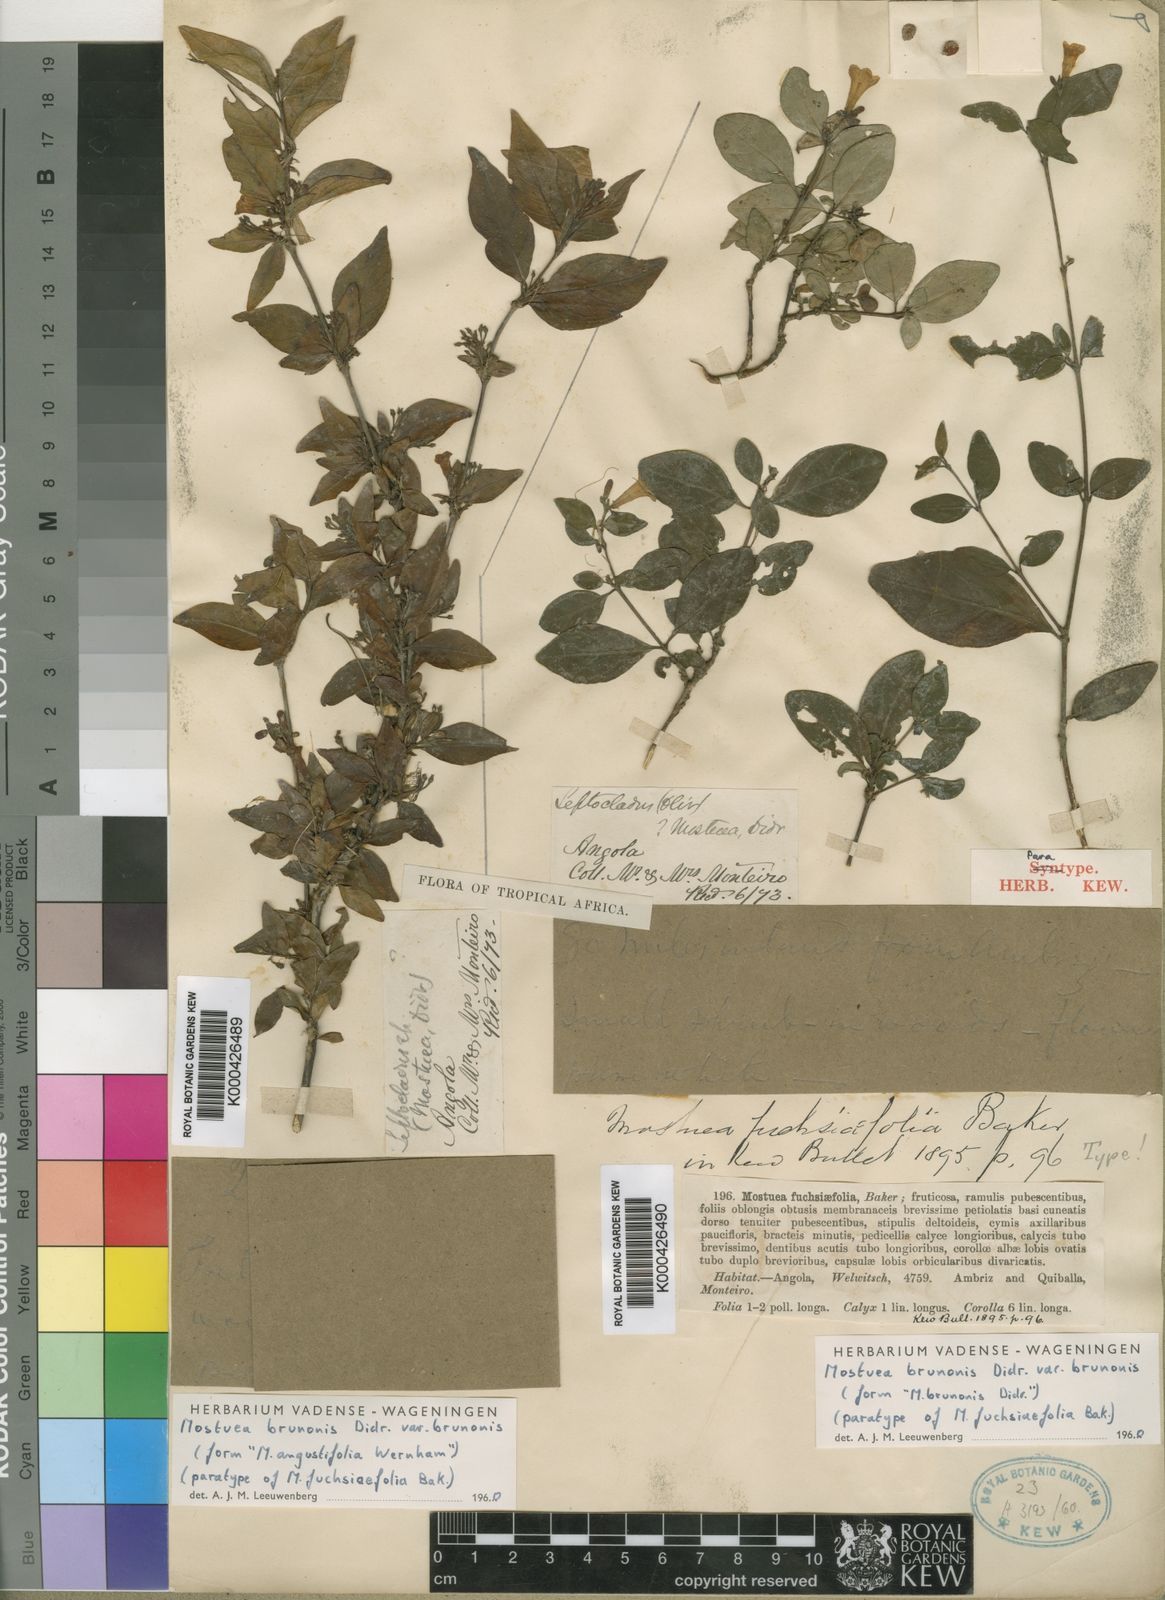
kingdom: Plantae
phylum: Tracheophyta
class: Magnoliopsida
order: Gentianales
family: Gelsemiaceae
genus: Mostuea
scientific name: Mostuea brunonis
